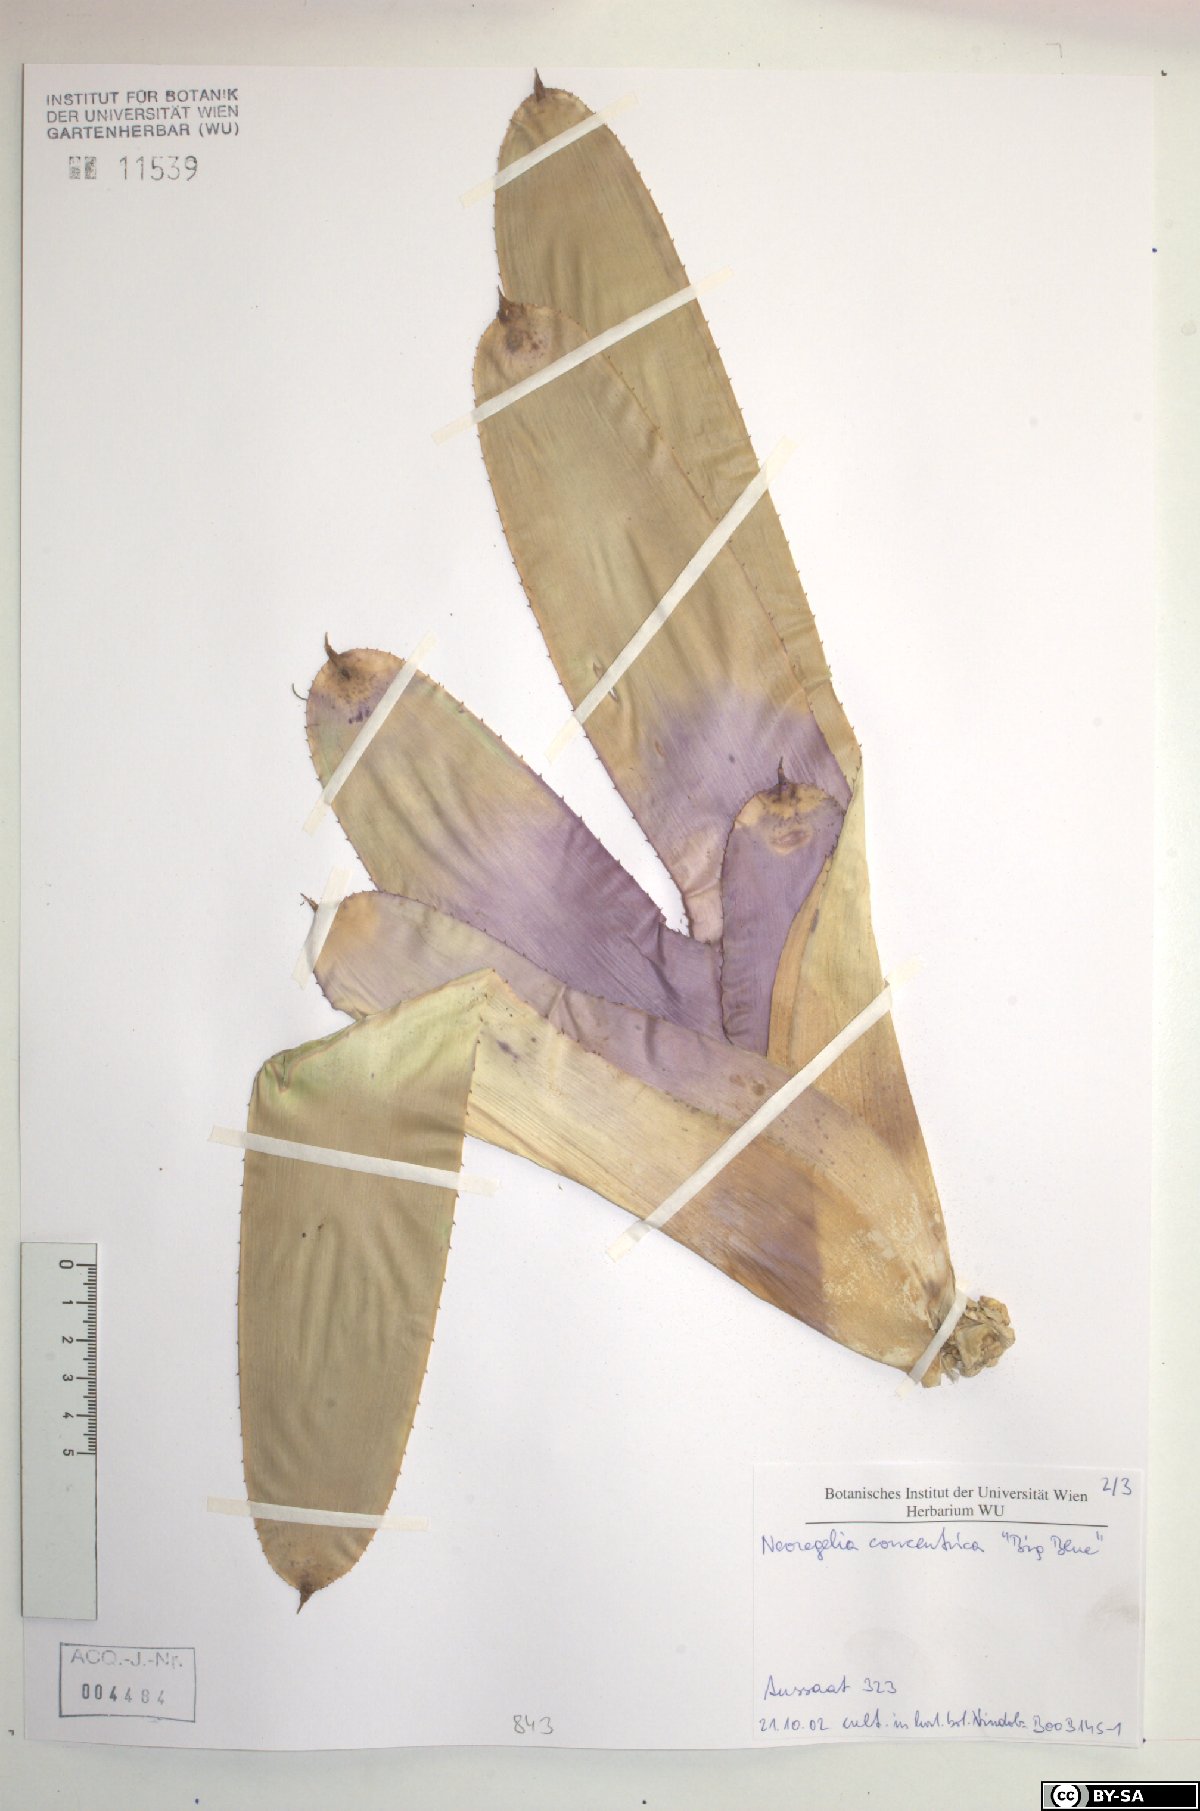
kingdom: Plantae
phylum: Tracheophyta
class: Liliopsida
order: Poales
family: Bromeliaceae
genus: Neoregelia
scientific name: Neoregelia concentrica
